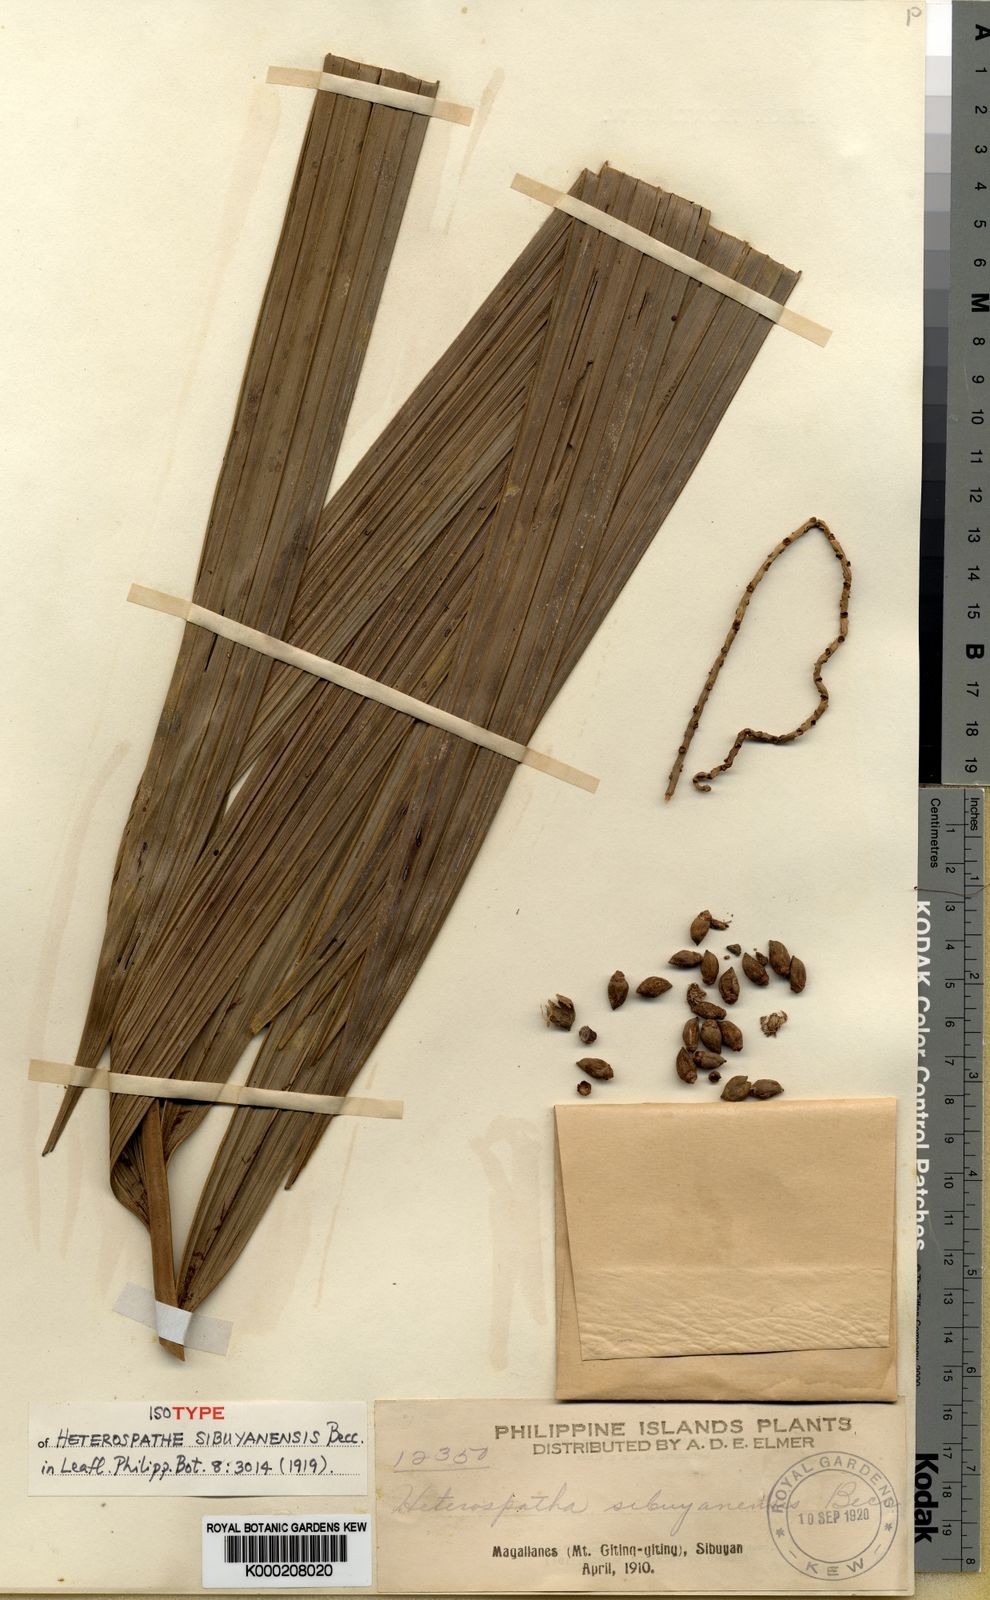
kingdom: Plantae
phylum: Tracheophyta
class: Liliopsida
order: Arecales
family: Arecaceae
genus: Heterospathe
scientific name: Heterospathe sibuyanensis
